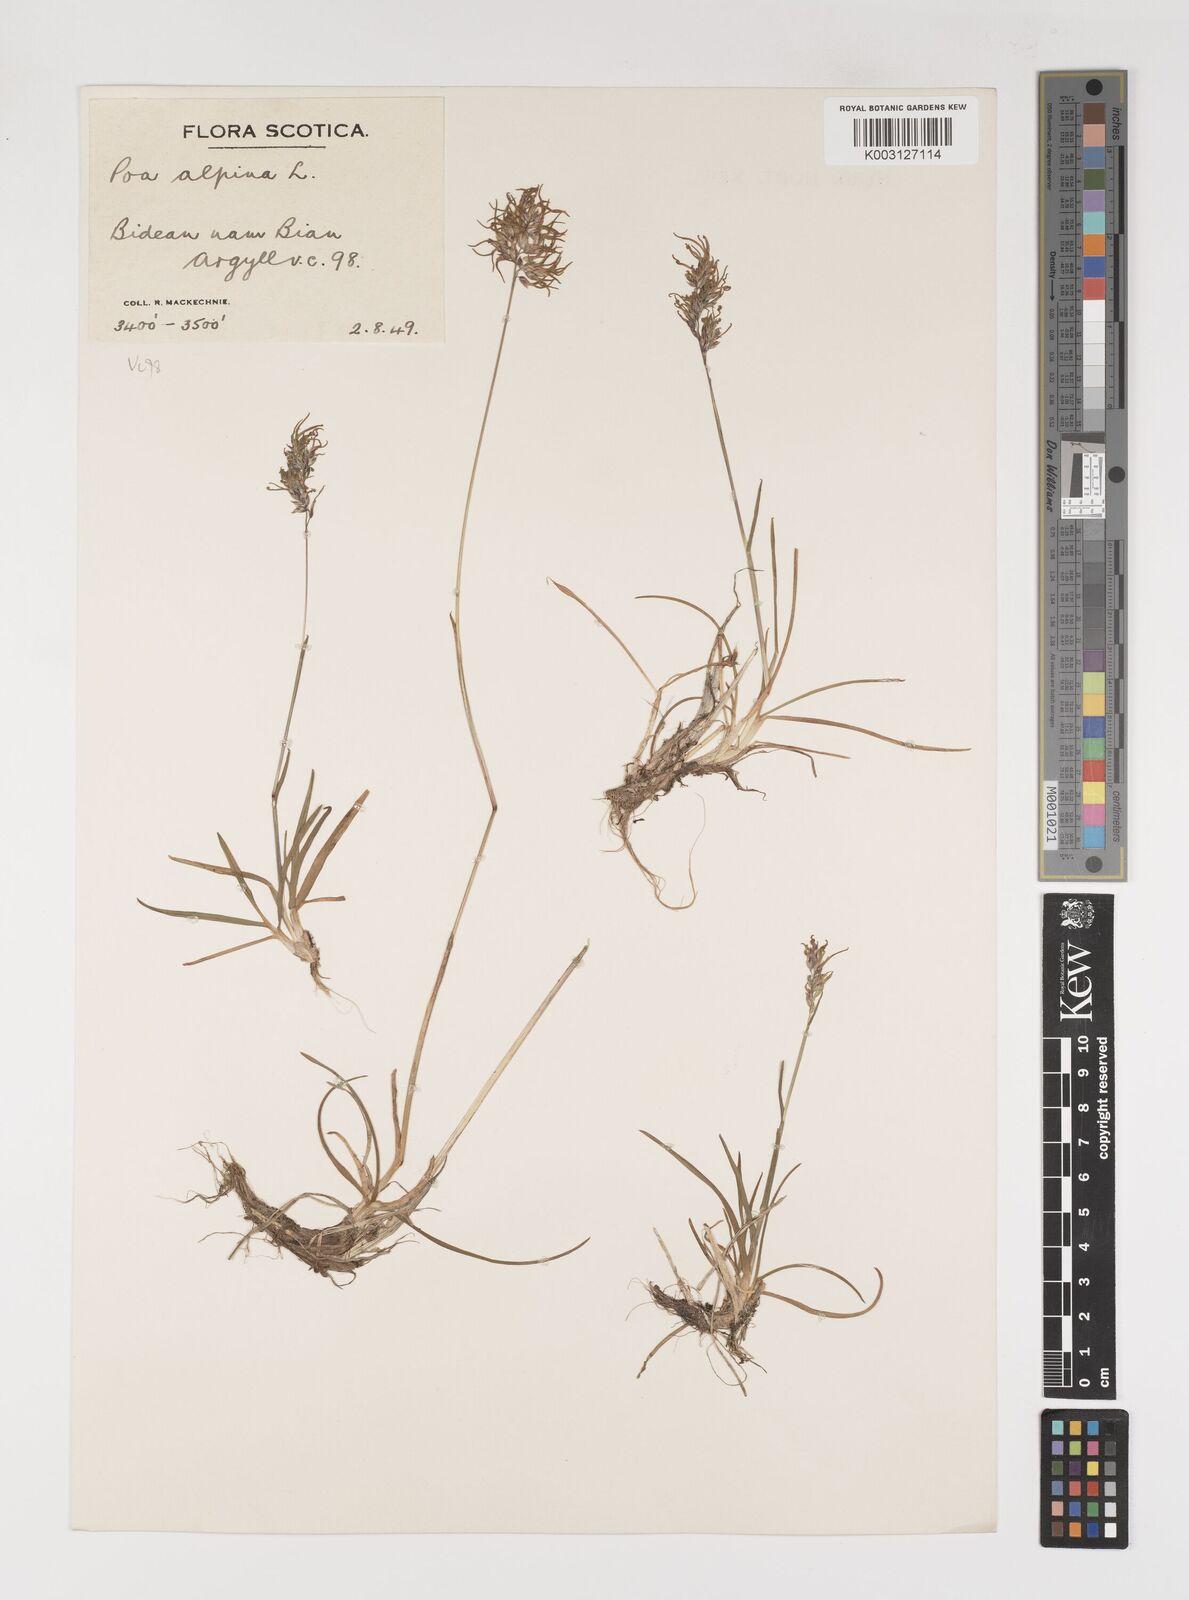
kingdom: Plantae
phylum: Tracheophyta
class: Liliopsida
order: Poales
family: Poaceae
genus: Poa
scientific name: Poa alpina
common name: Alpine bluegrass
